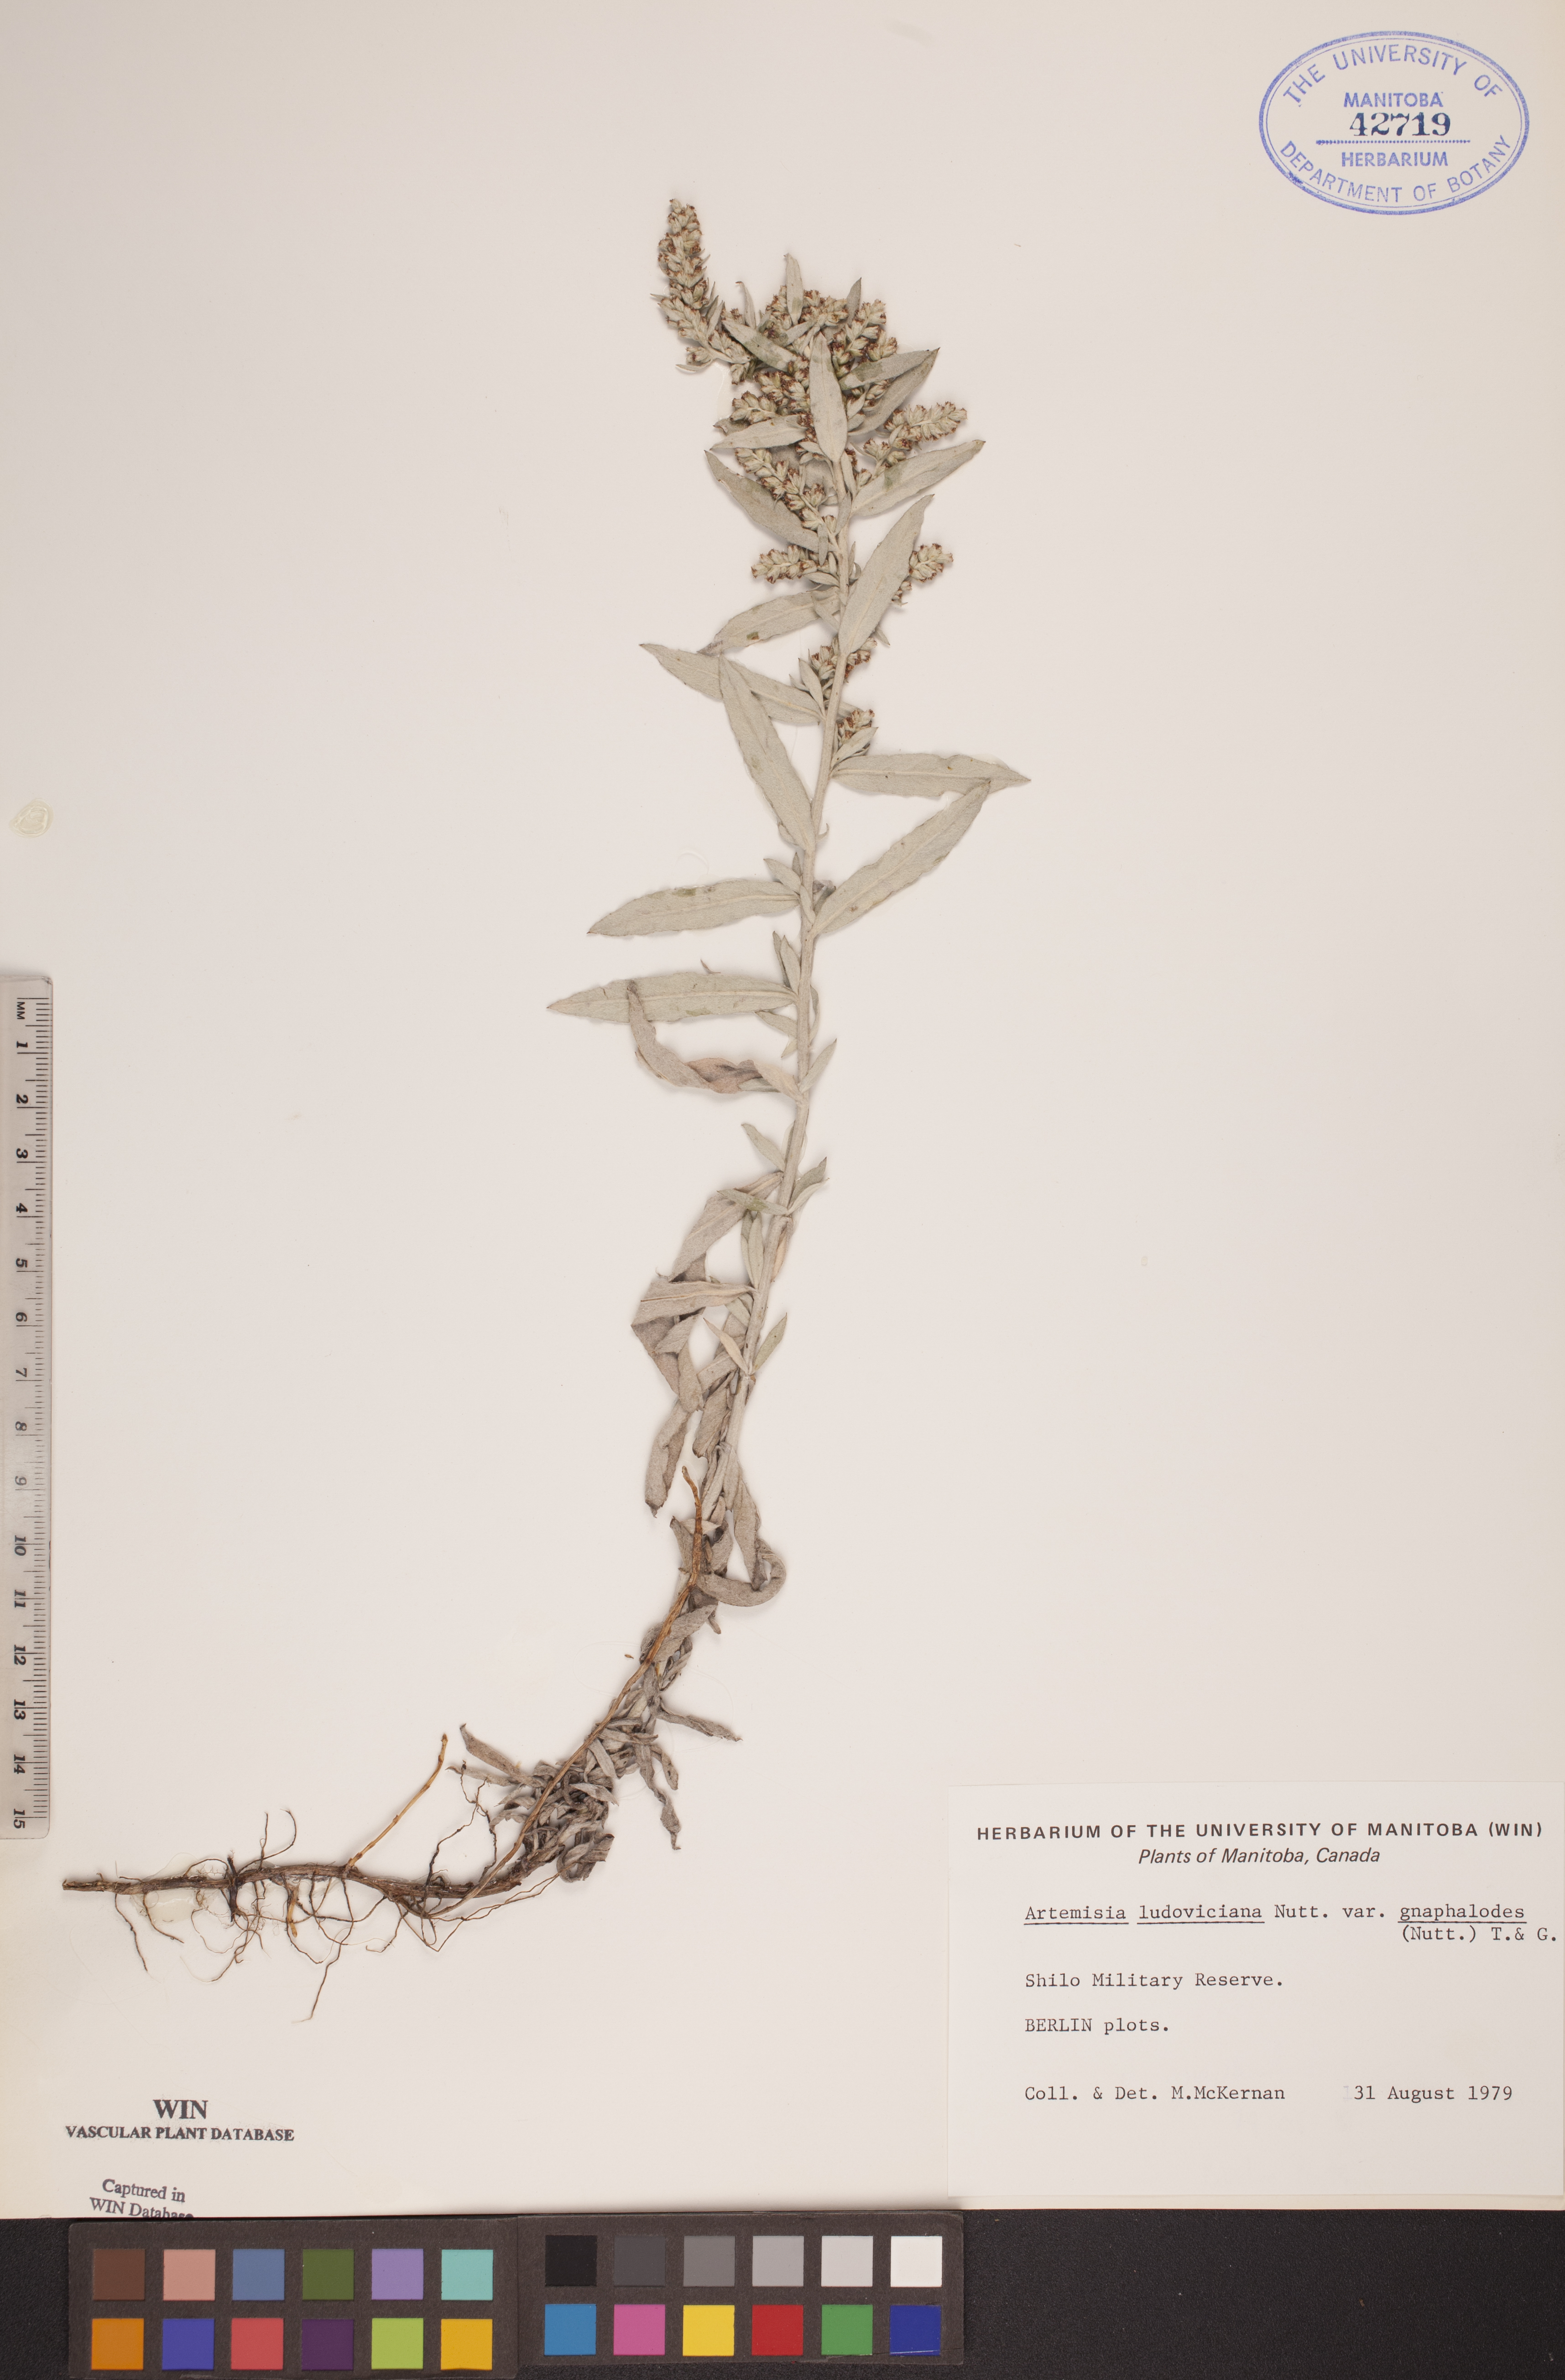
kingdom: Plantae
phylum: Tracheophyta
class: Magnoliopsida
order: Asterales
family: Asteraceae
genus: Artemisia
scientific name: Artemisia ludoviciana
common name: Western mugwort
